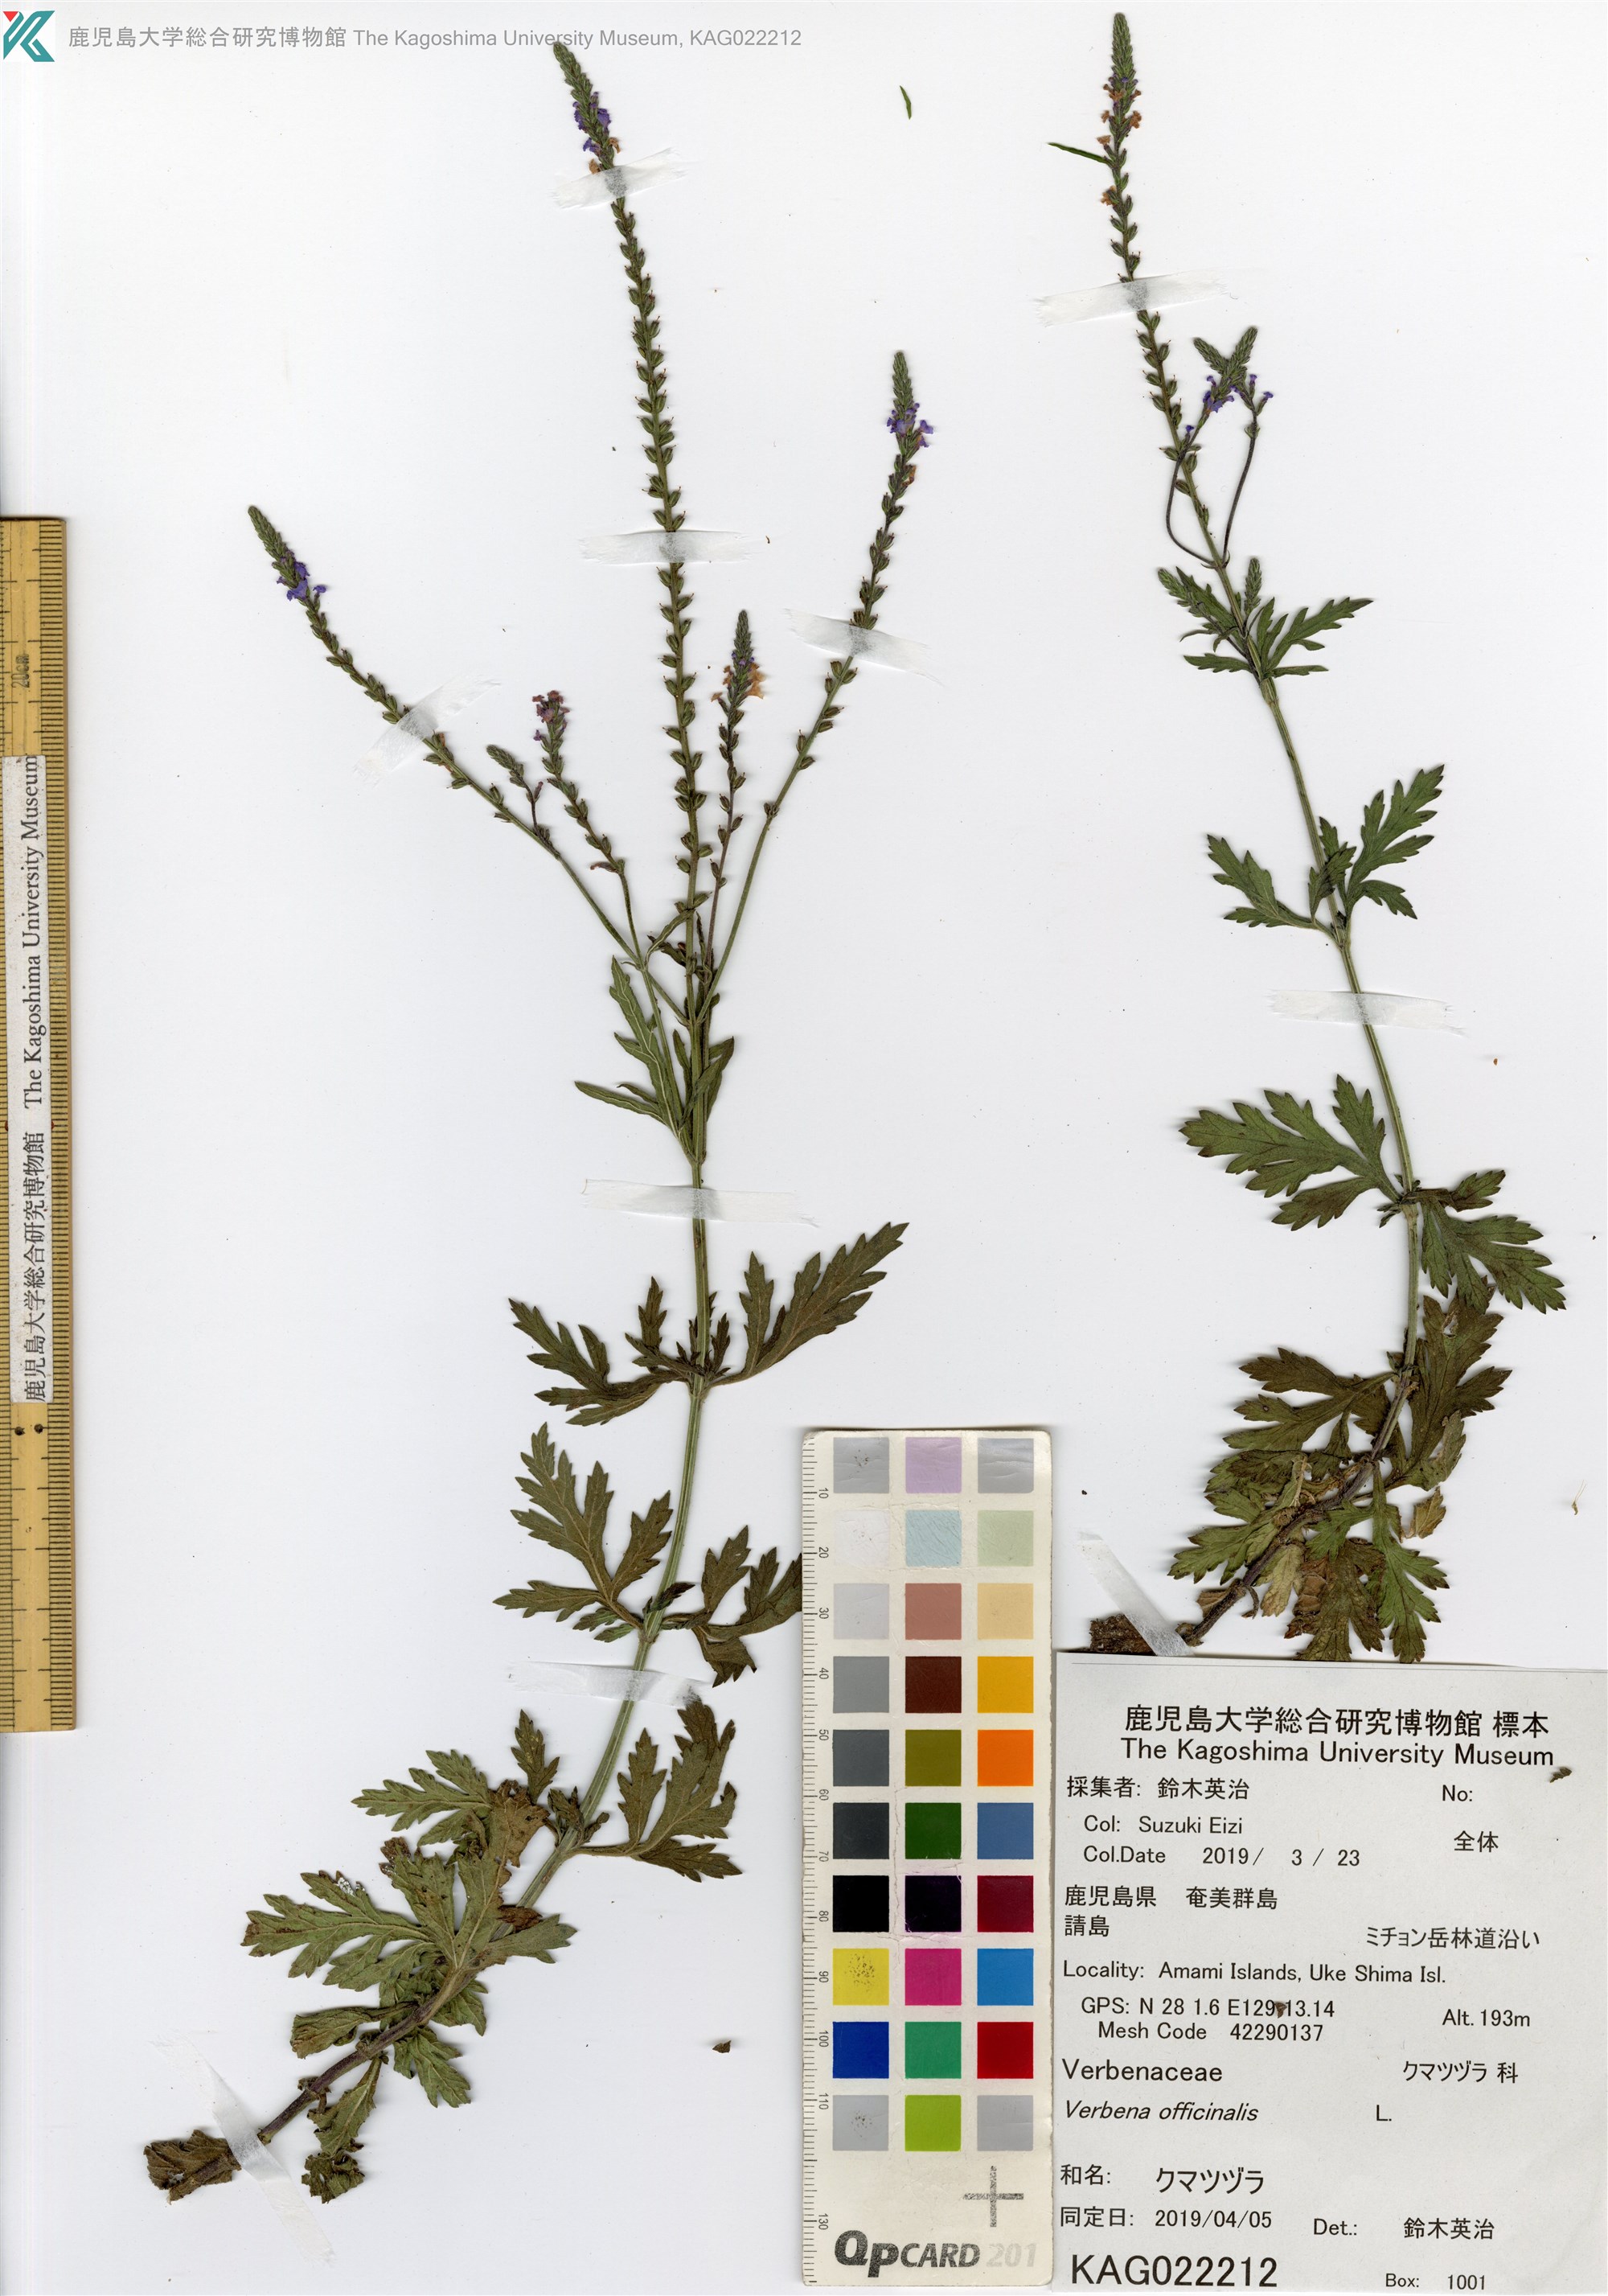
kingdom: Plantae
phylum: Tracheophyta
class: Magnoliopsida
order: Lamiales
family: Verbenaceae
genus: Verbena
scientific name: Verbena officinalis
